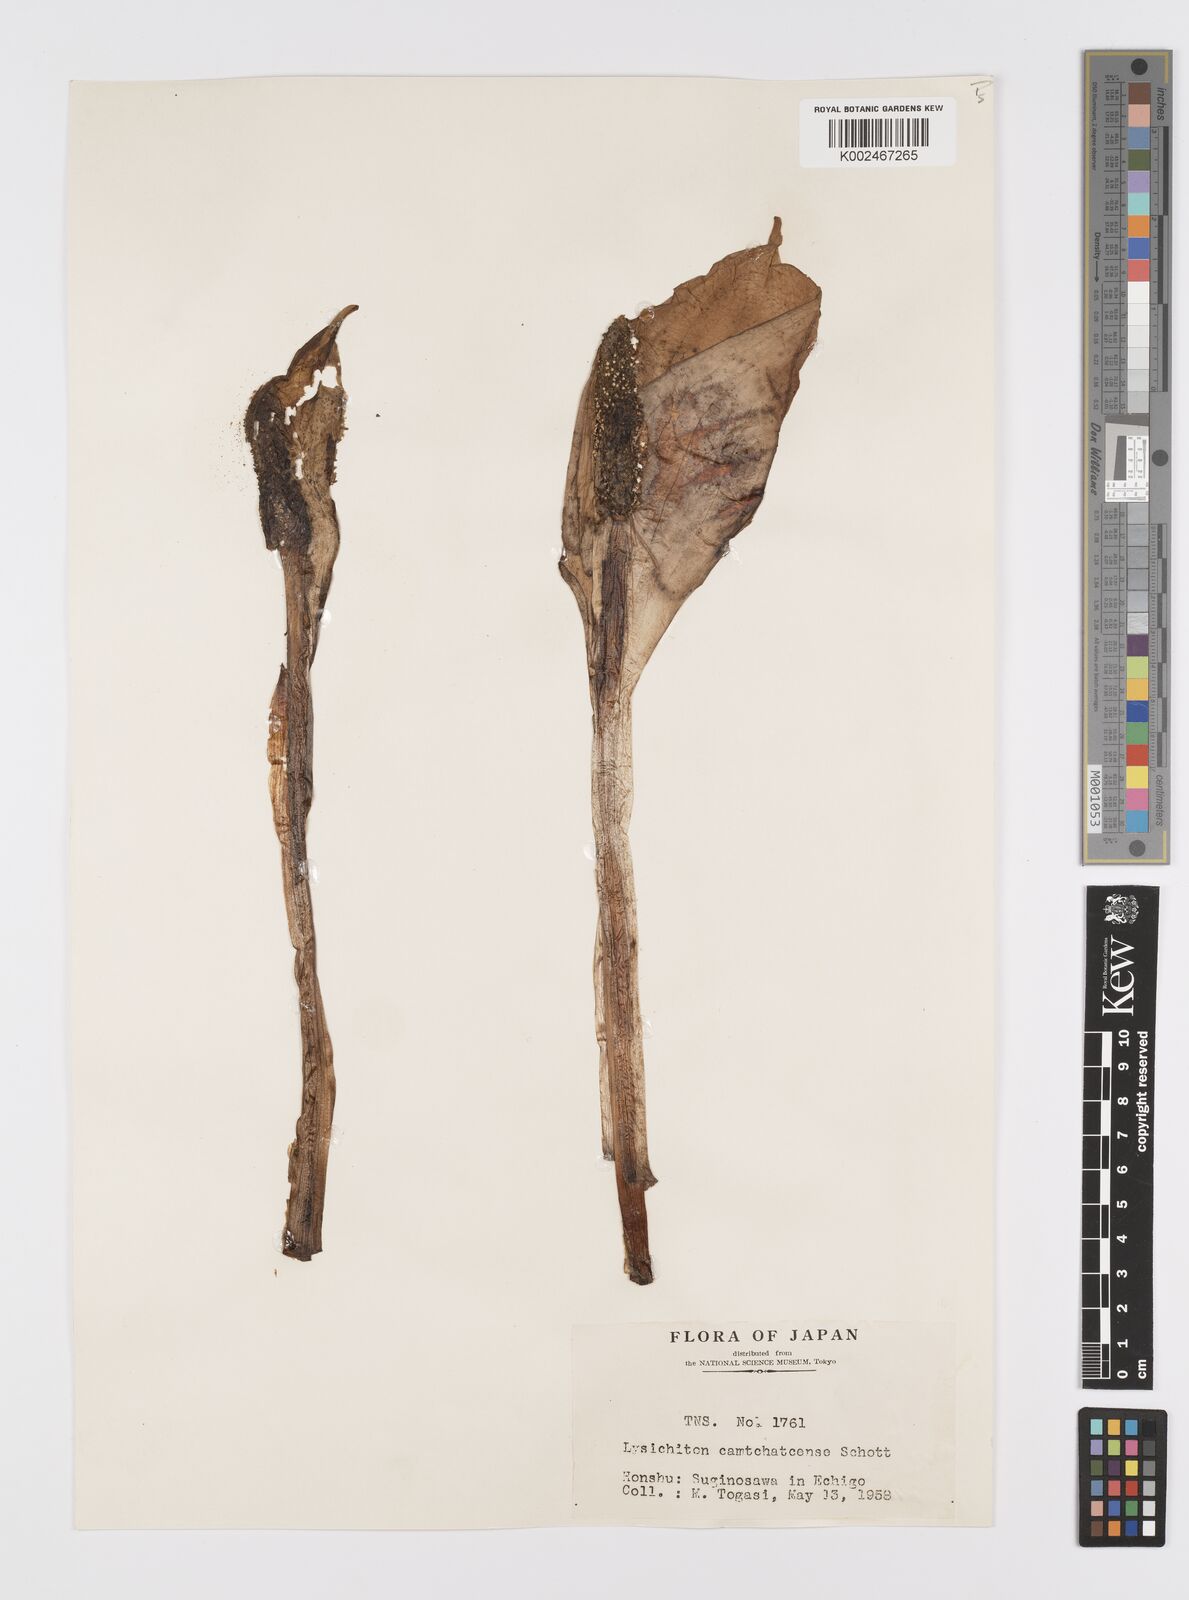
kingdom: Plantae
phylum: Tracheophyta
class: Liliopsida
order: Alismatales
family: Araceae
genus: Lysichiton
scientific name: Lysichiton camtschatcensis
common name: Asian skunk-cabbage
